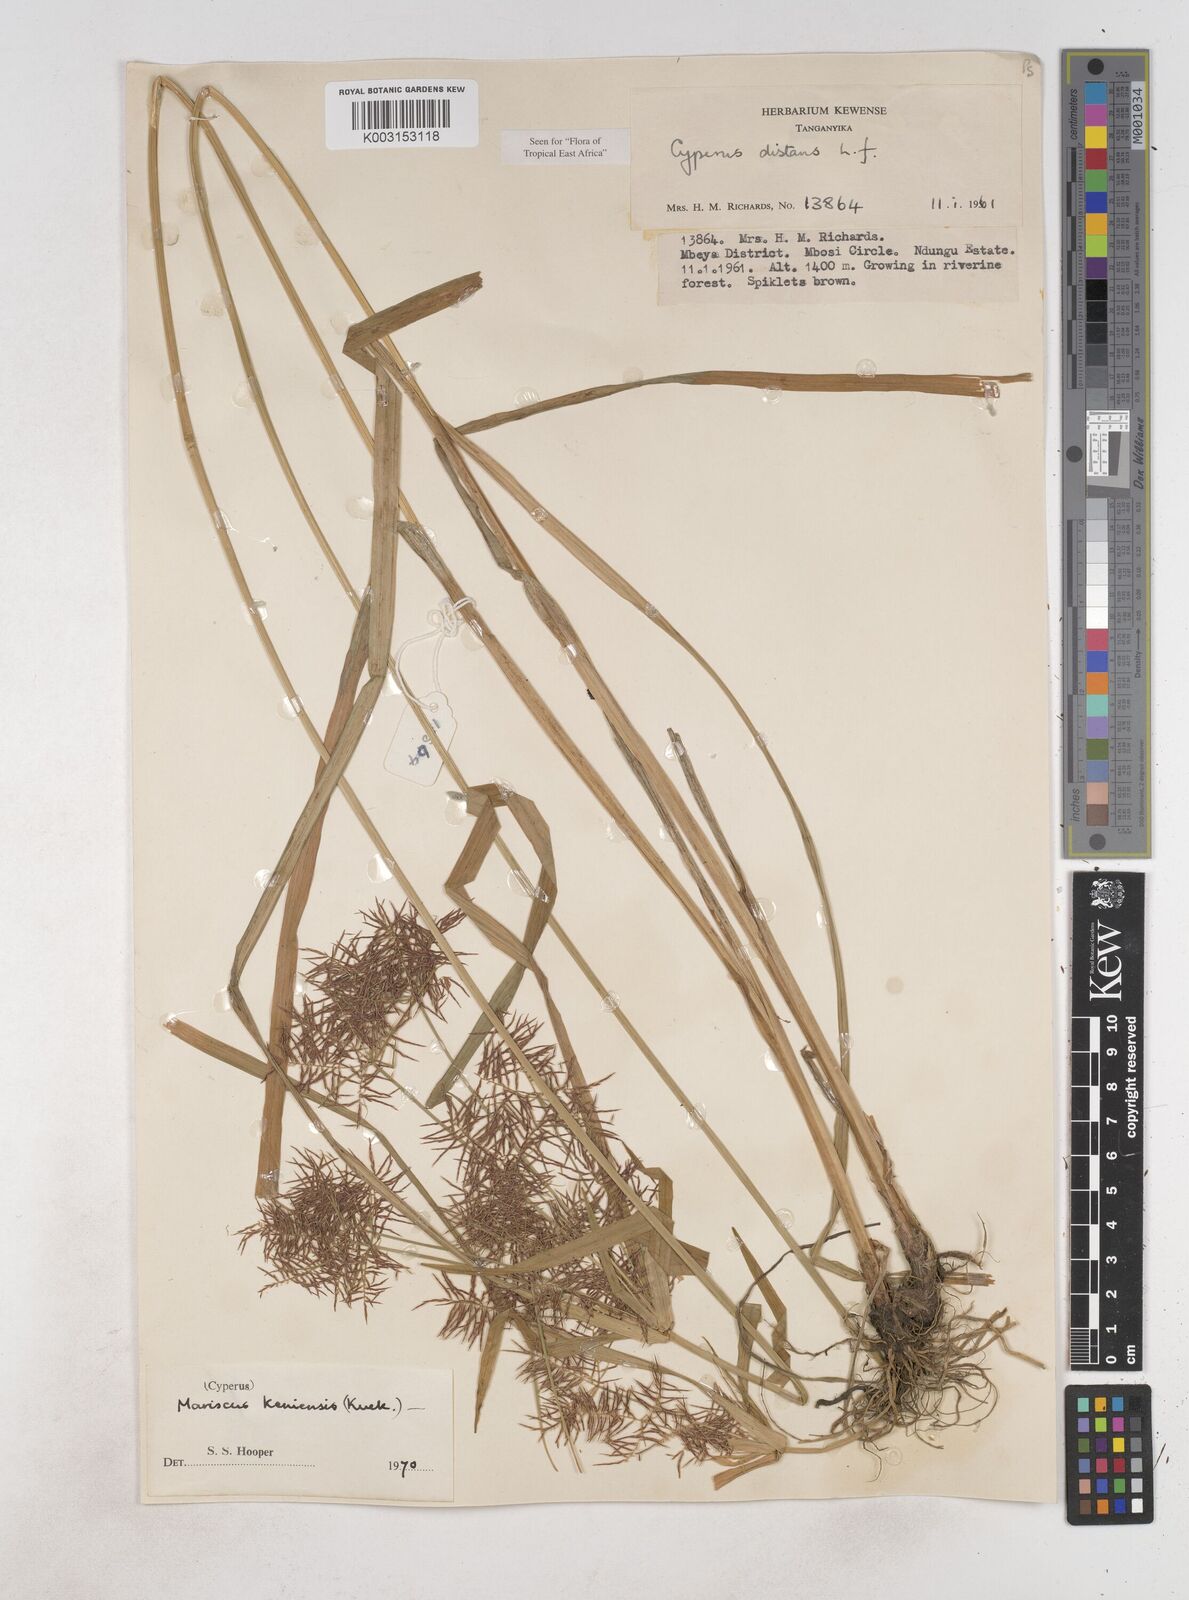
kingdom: Plantae
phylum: Tracheophyta
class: Liliopsida
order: Poales
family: Cyperaceae
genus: Cyperus
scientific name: Cyperus distans
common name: Slender cyperus
